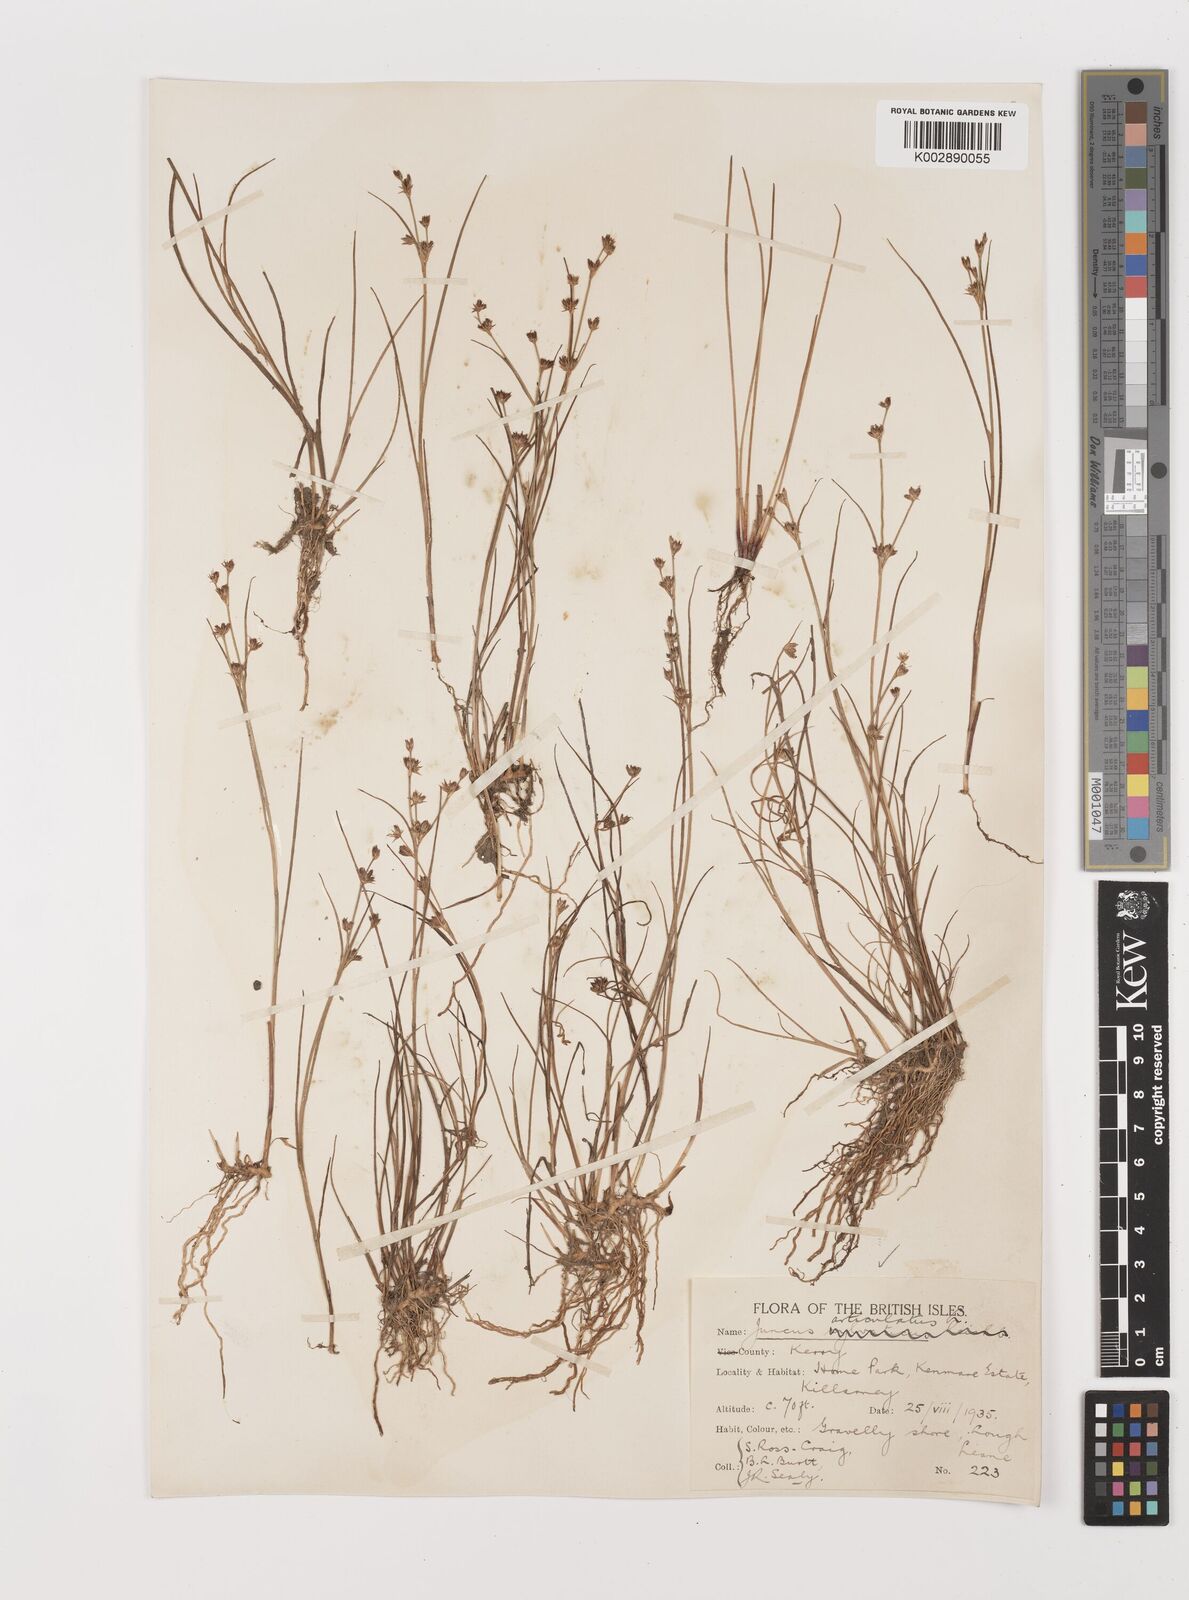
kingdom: Plantae
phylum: Tracheophyta
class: Liliopsida
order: Poales
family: Juncaceae
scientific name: Juncaceae
